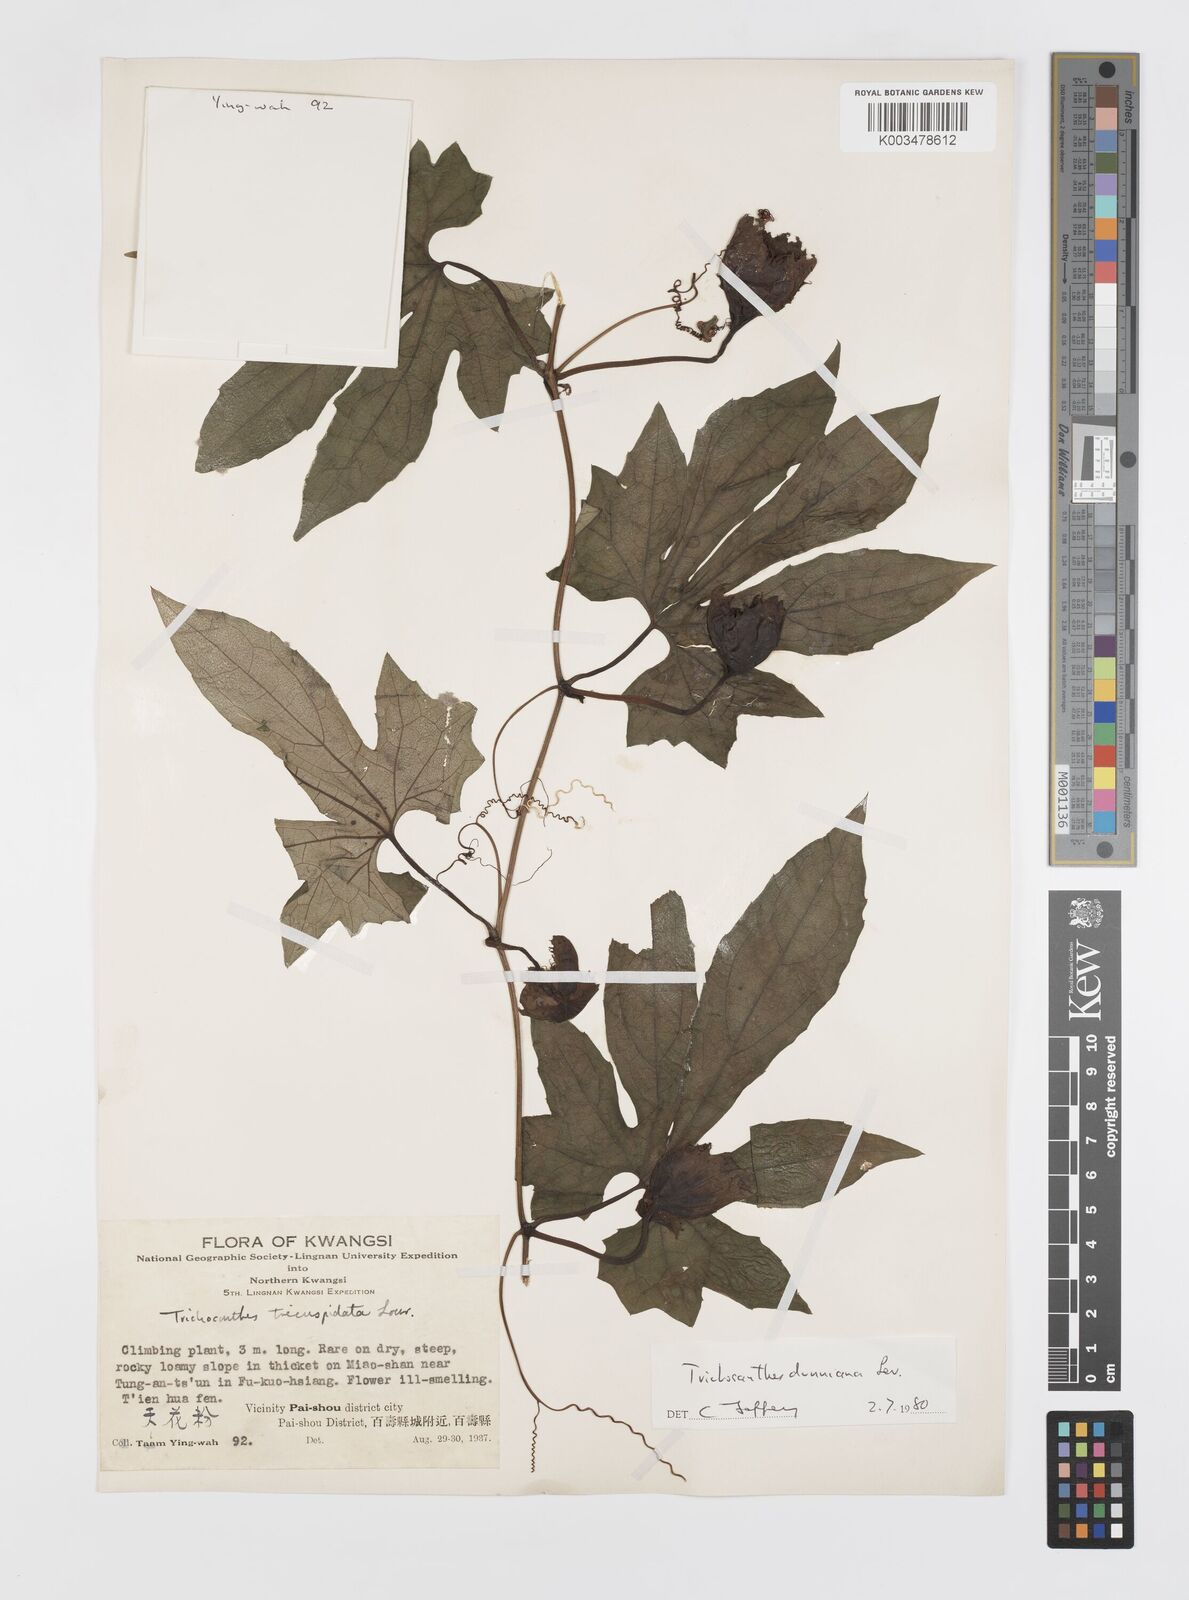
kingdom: Plantae
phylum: Tracheophyta
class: Magnoliopsida
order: Cucurbitales
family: Cucurbitaceae
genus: Trichosanthes
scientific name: Trichosanthes dunniana
